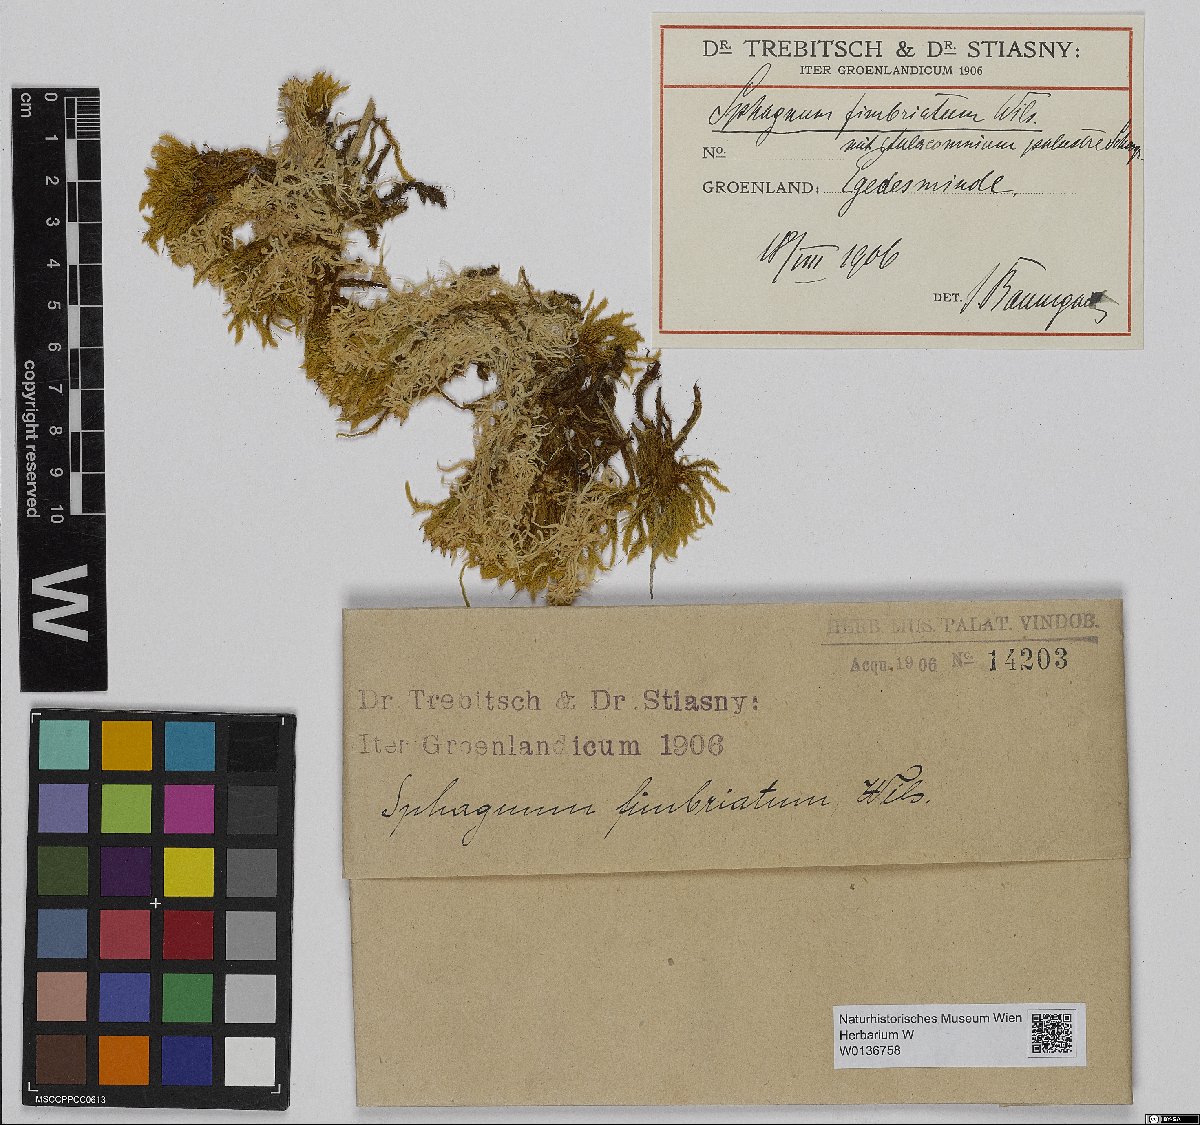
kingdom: Plantae
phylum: Bryophyta
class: Sphagnopsida
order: Sphagnales
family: Sphagnaceae
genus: Sphagnum
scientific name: Sphagnum fimbriatum
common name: Fringed peat moss
